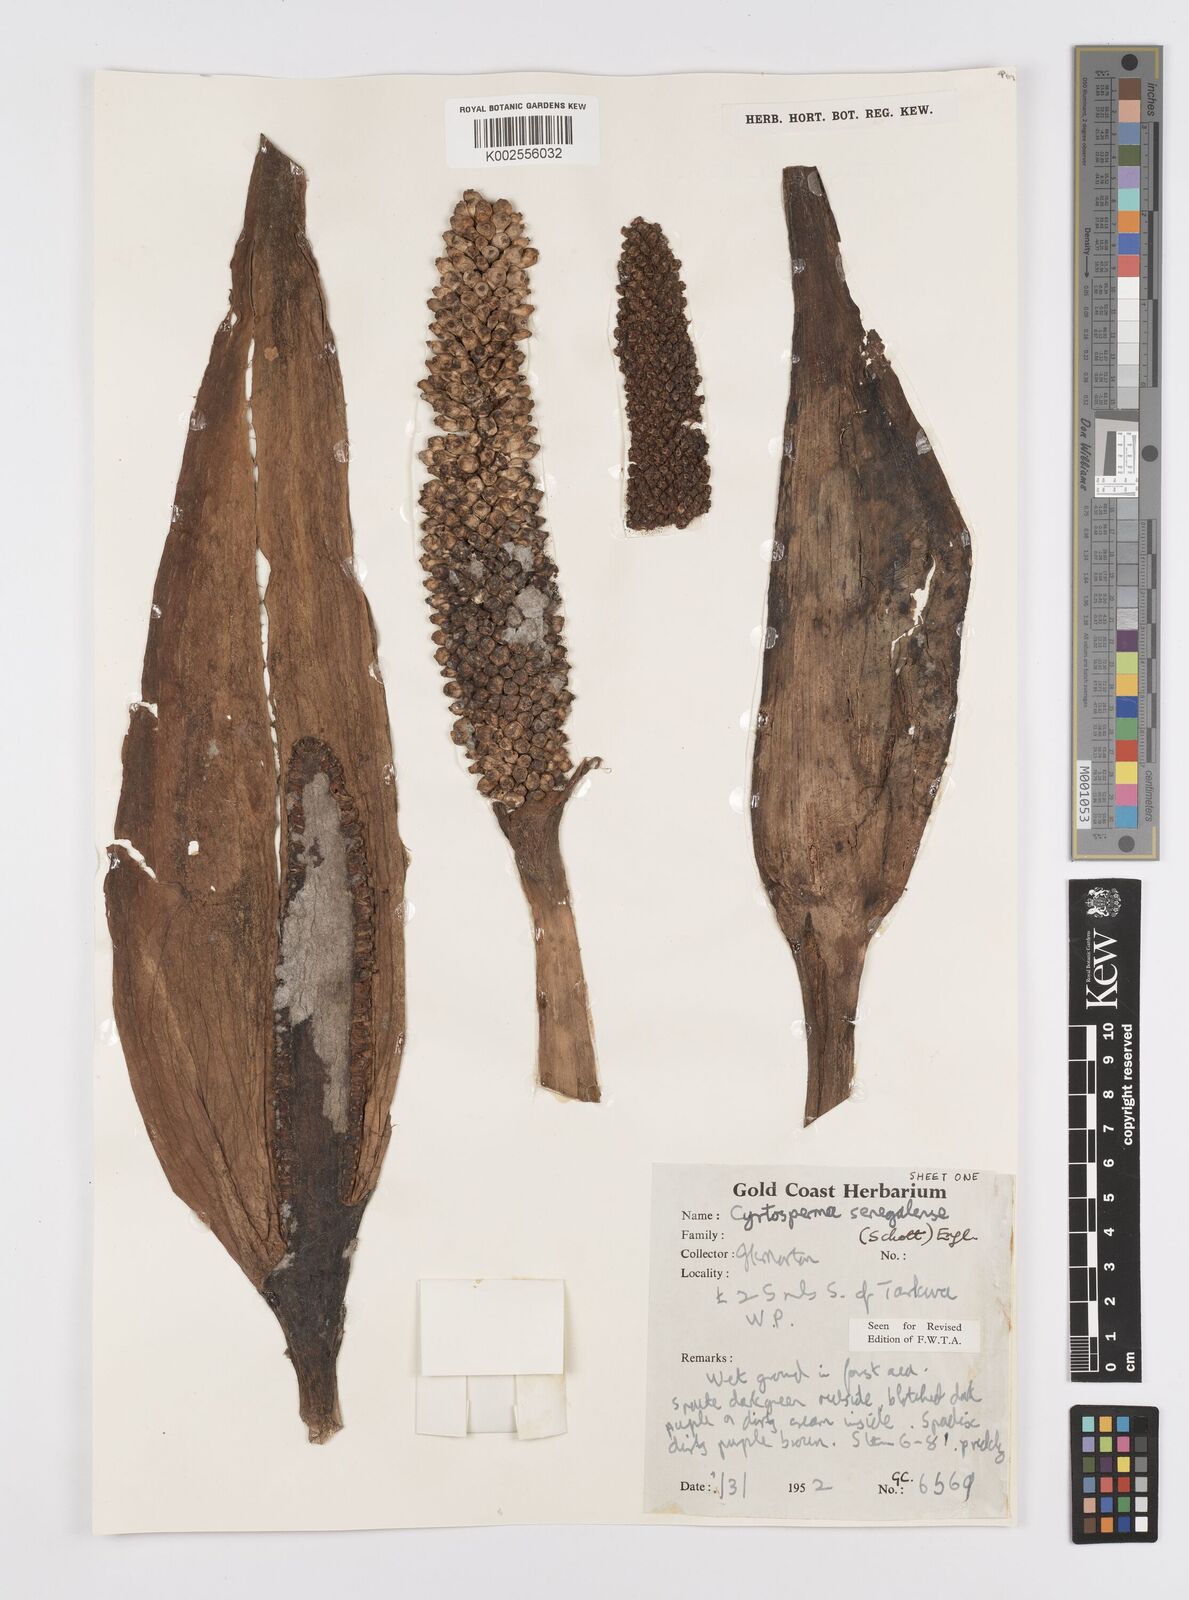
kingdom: Plantae
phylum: Tracheophyta
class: Liliopsida
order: Alismatales
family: Araceae
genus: Lasimorpha
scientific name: Lasimorpha senegalensis
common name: Swamp arum
